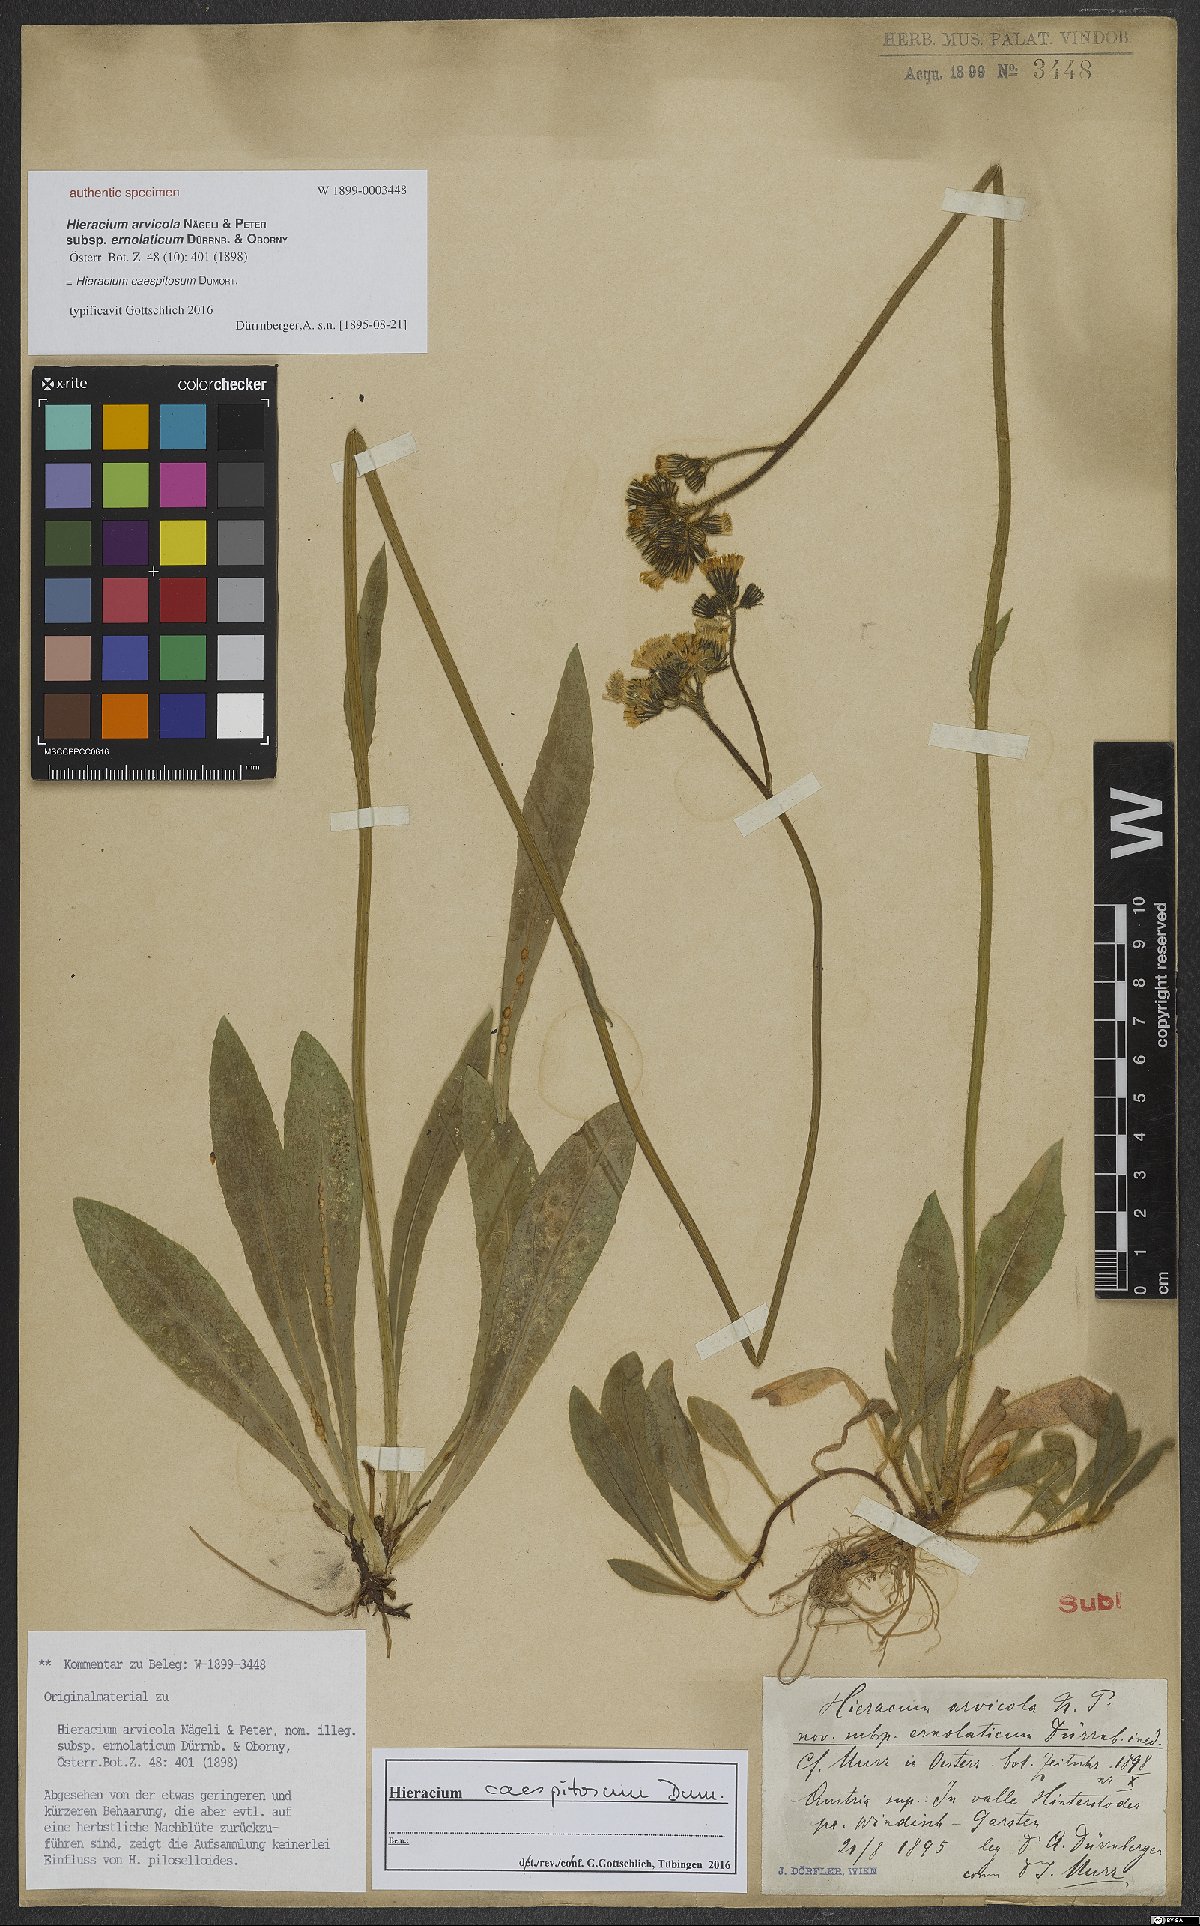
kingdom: Plantae
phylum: Tracheophyta
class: Magnoliopsida
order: Asterales
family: Asteraceae
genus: Pilosella
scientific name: Pilosella caespitosa
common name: Yellow fox-and-cubs
